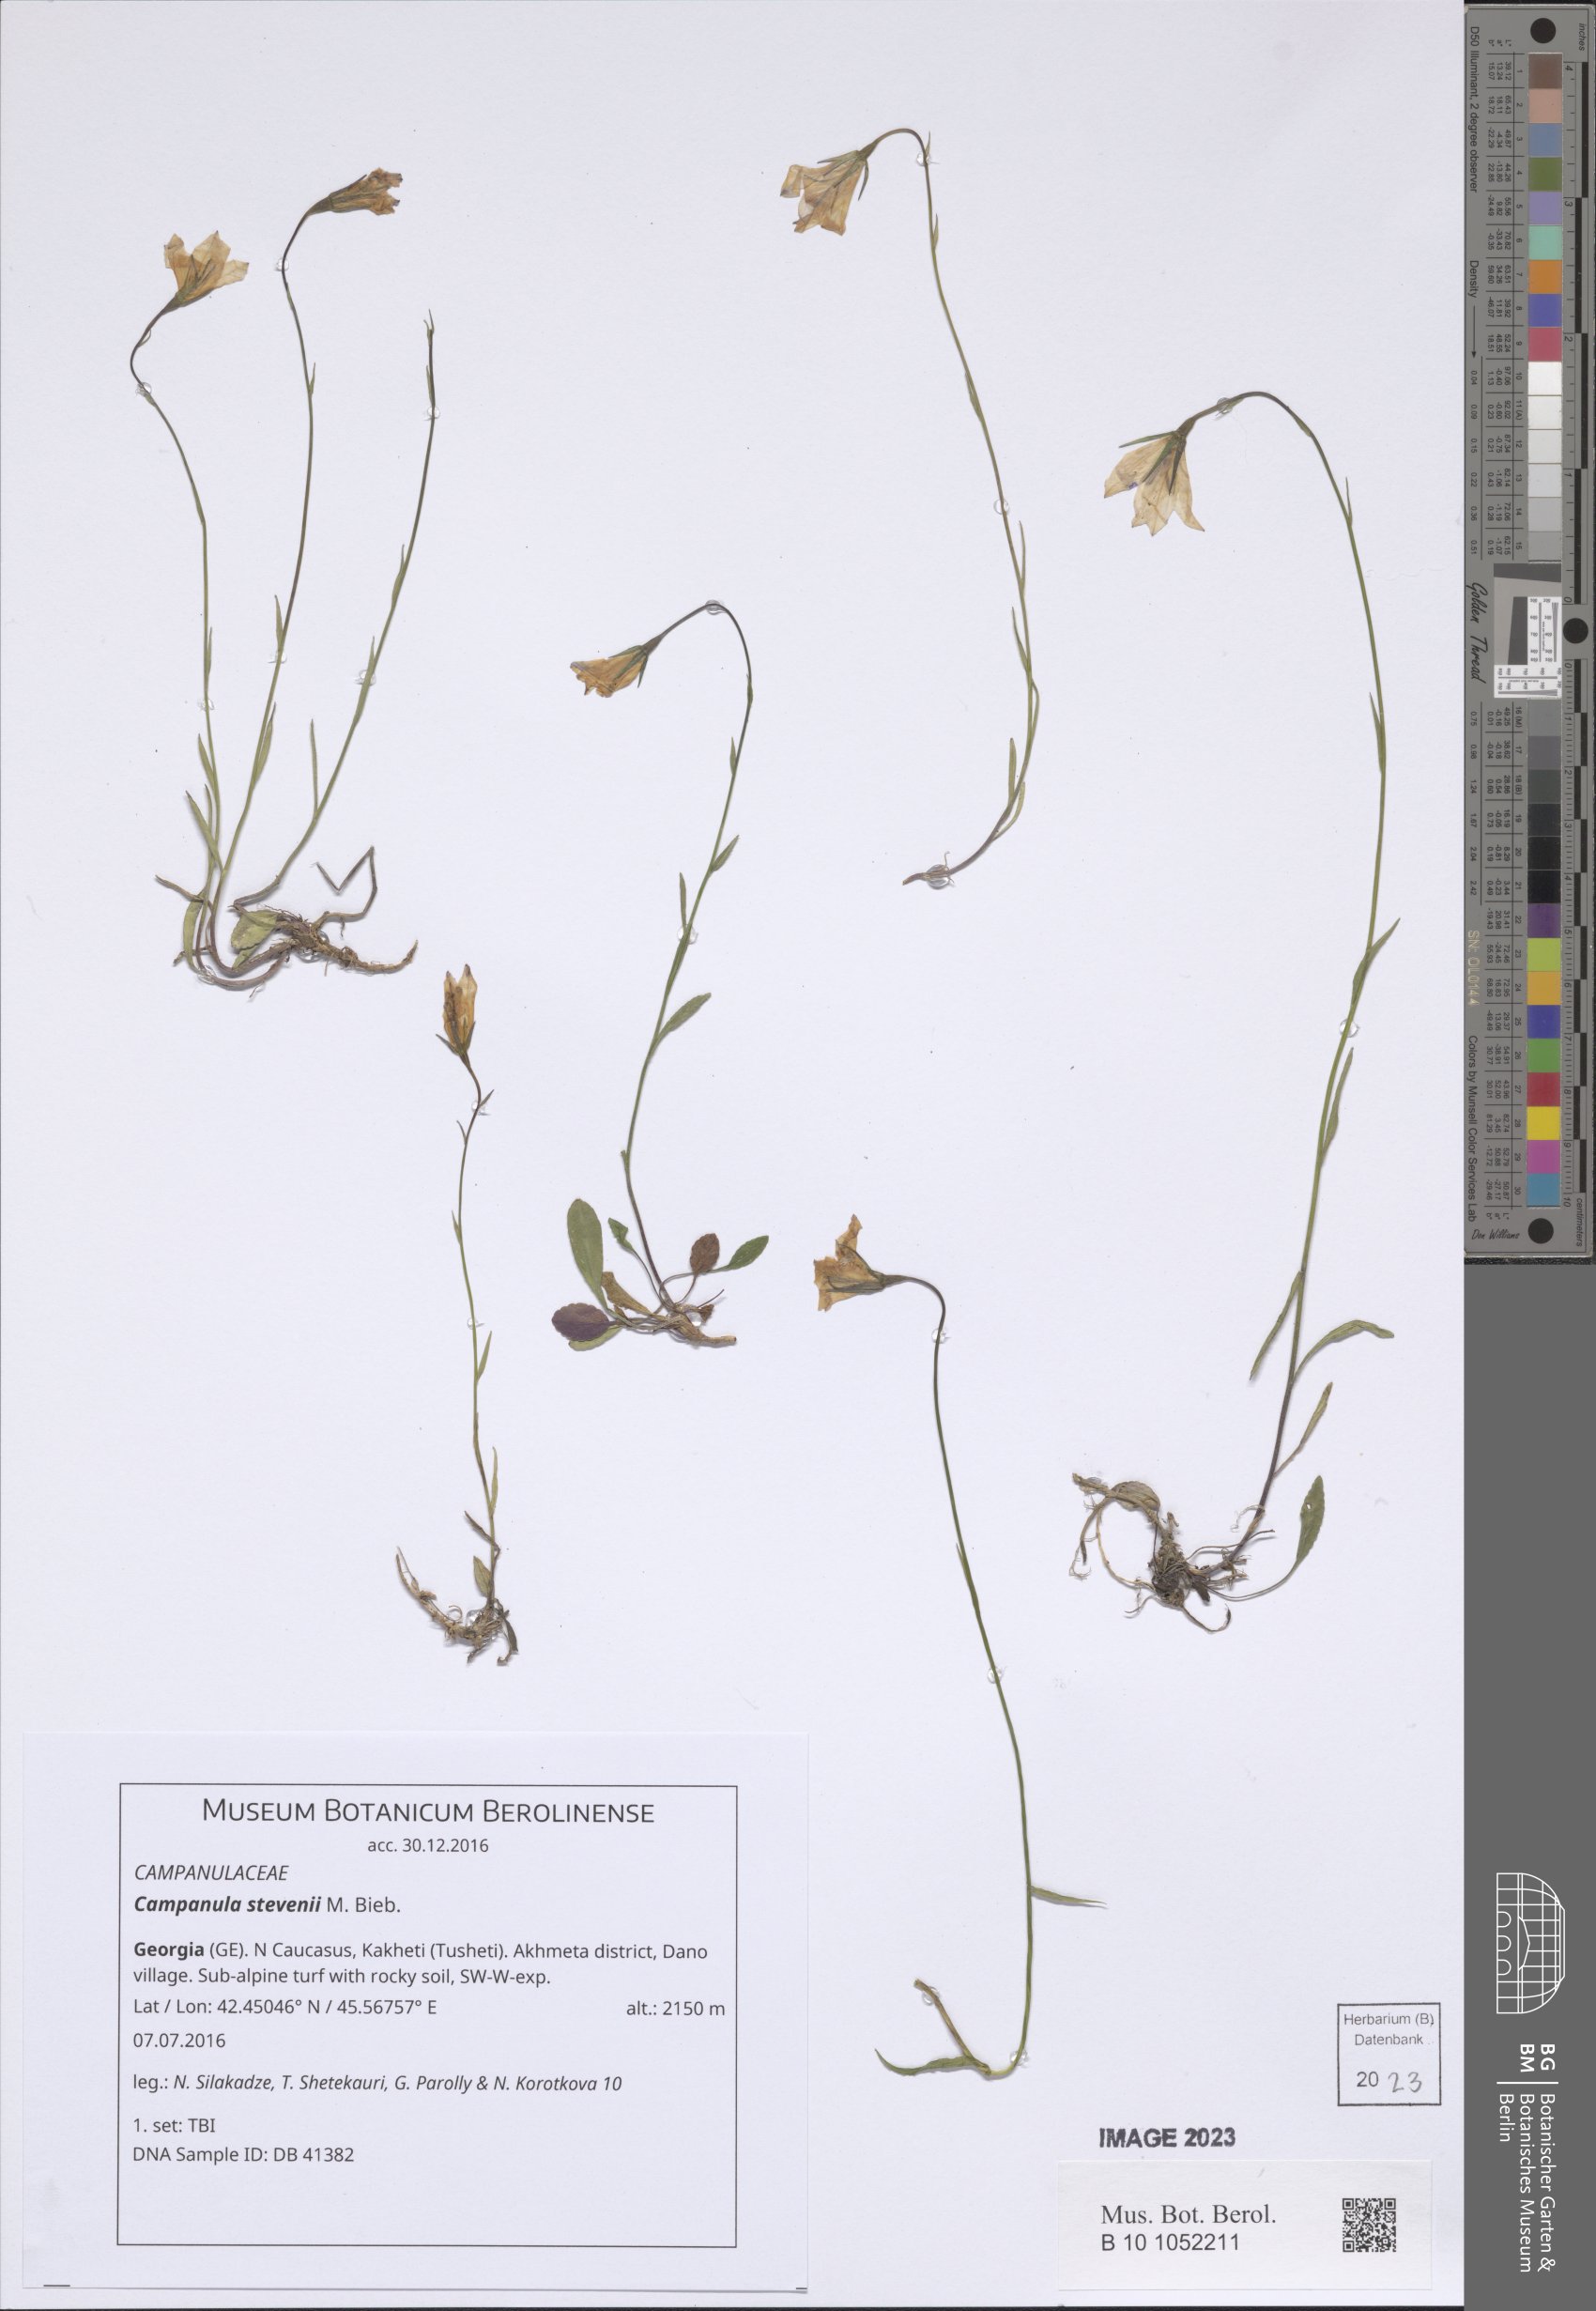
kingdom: Plantae
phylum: Tracheophyta
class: Magnoliopsida
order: Asterales
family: Campanulaceae
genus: Campanula
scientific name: Campanula stevenii
